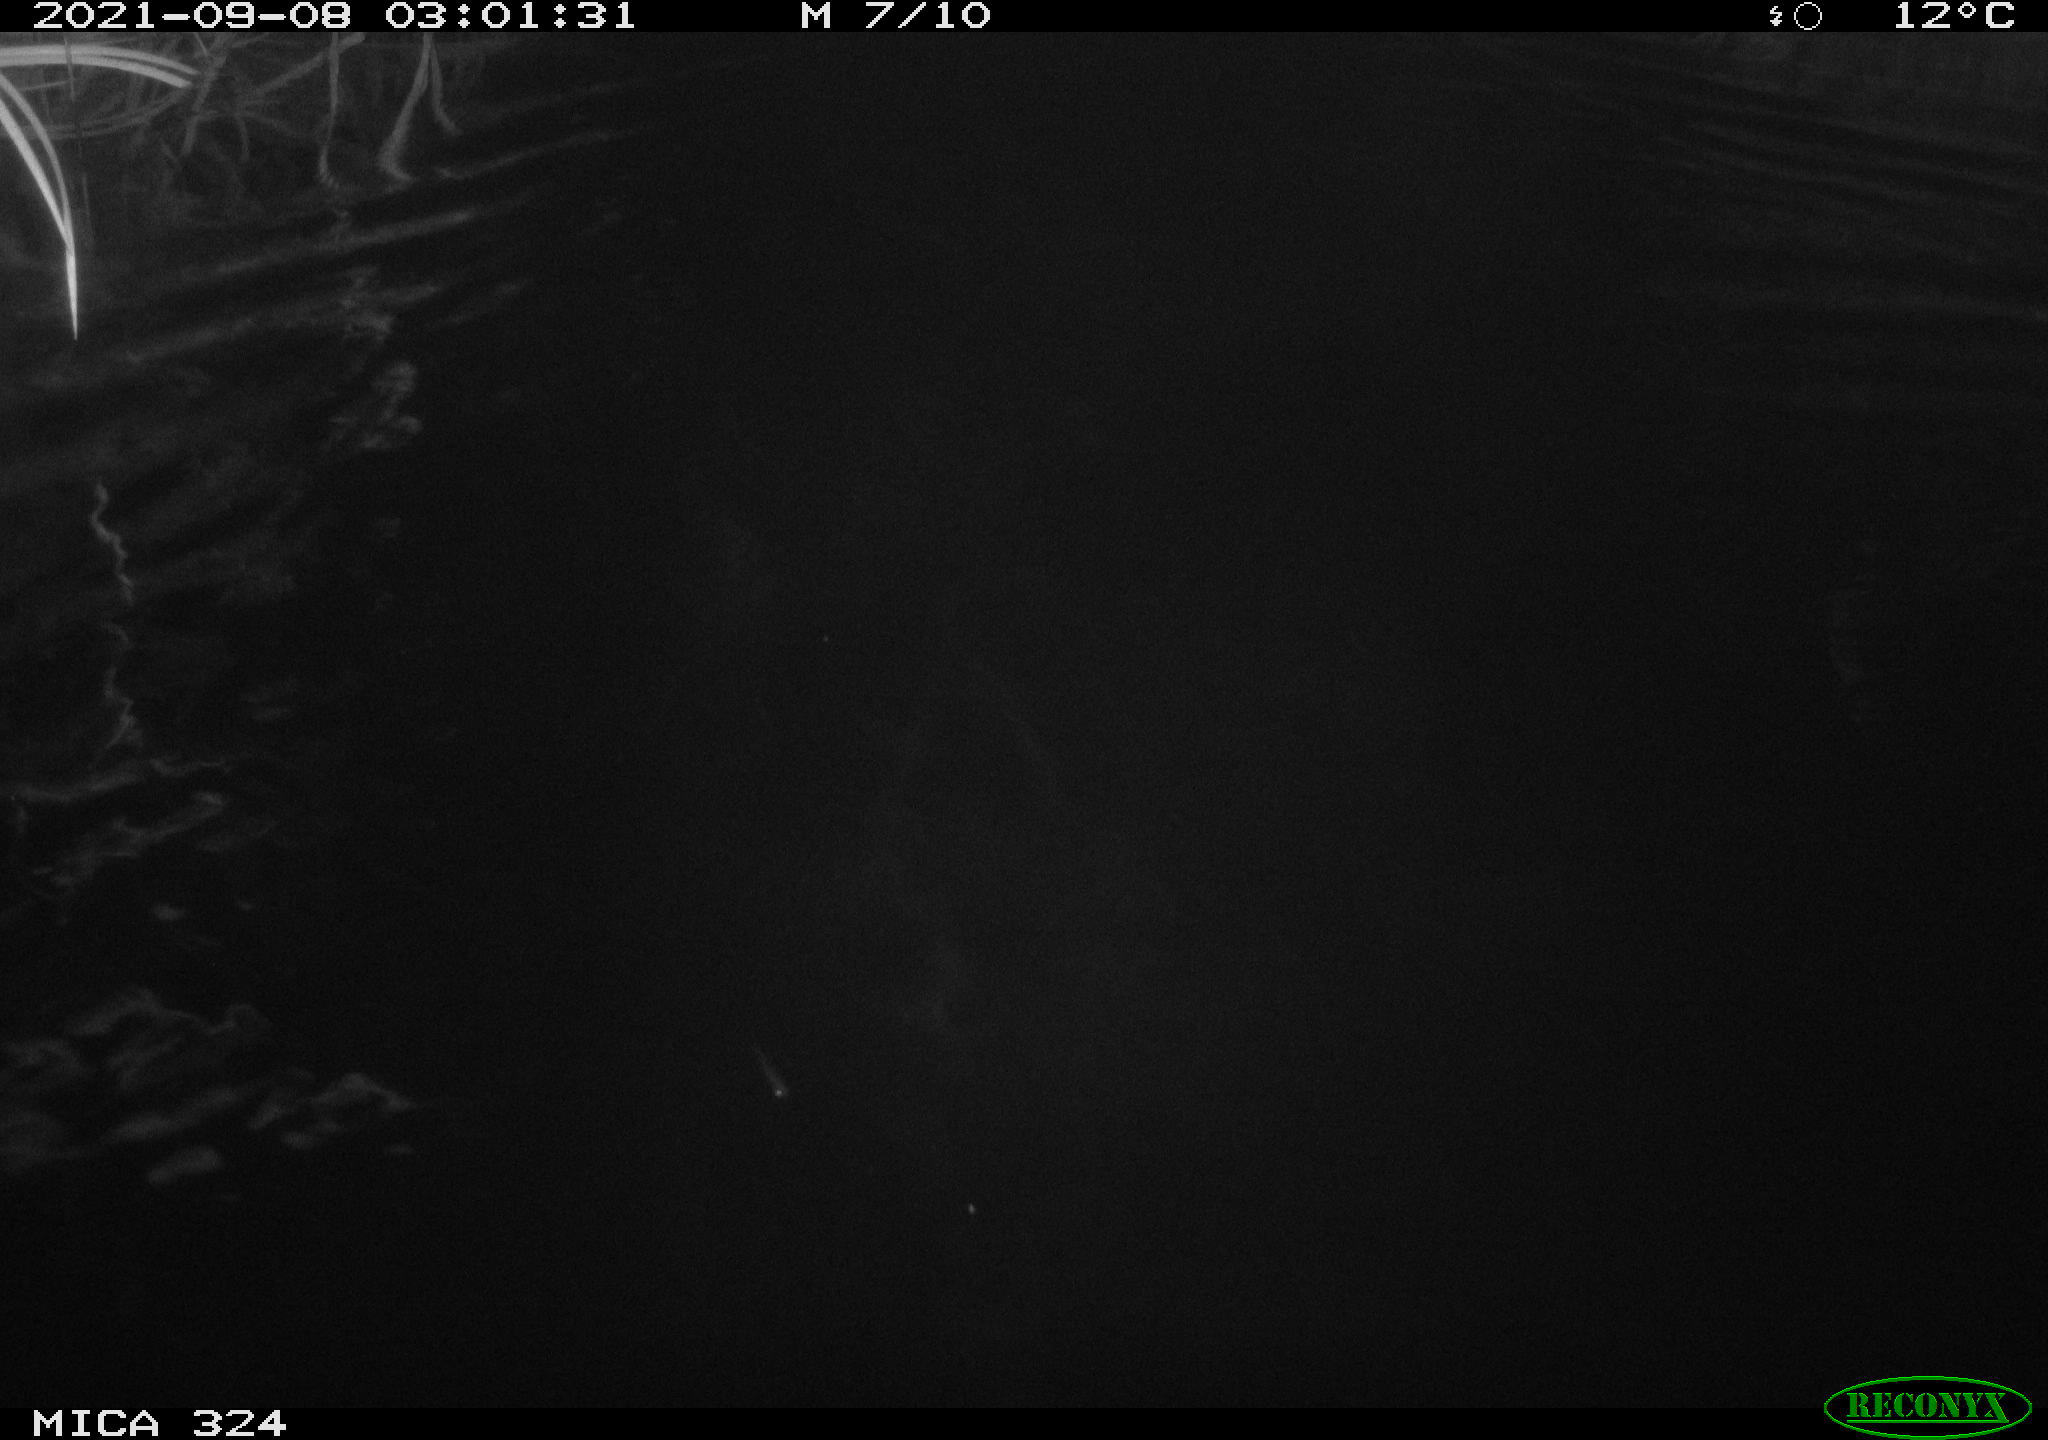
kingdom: Animalia
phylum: Chordata
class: Mammalia
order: Rodentia
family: Cricetidae
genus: Ondatra
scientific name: Ondatra zibethicus
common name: Muskrat
